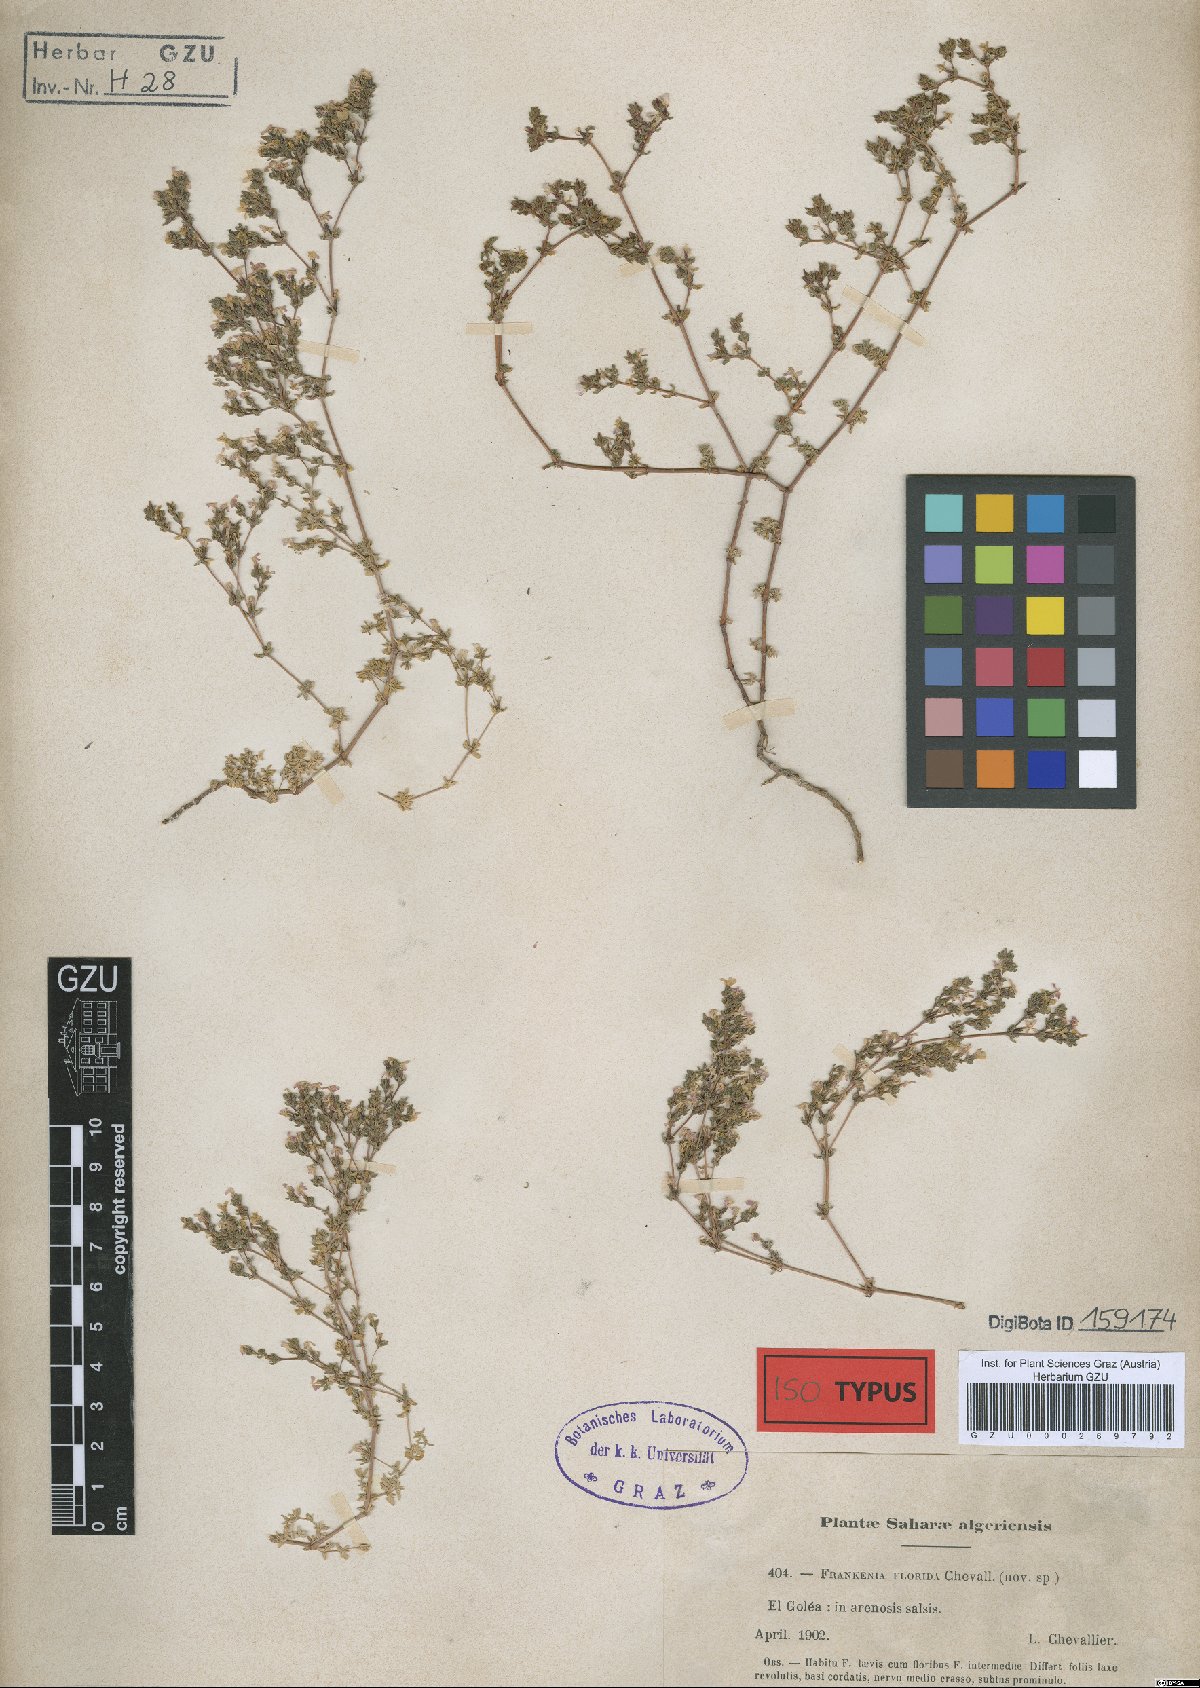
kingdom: Plantae
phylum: Tracheophyta
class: Magnoliopsida
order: Caryophyllales
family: Frankeniaceae
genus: Frankenia
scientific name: Frankenia pulverulenta
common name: European seaheath
